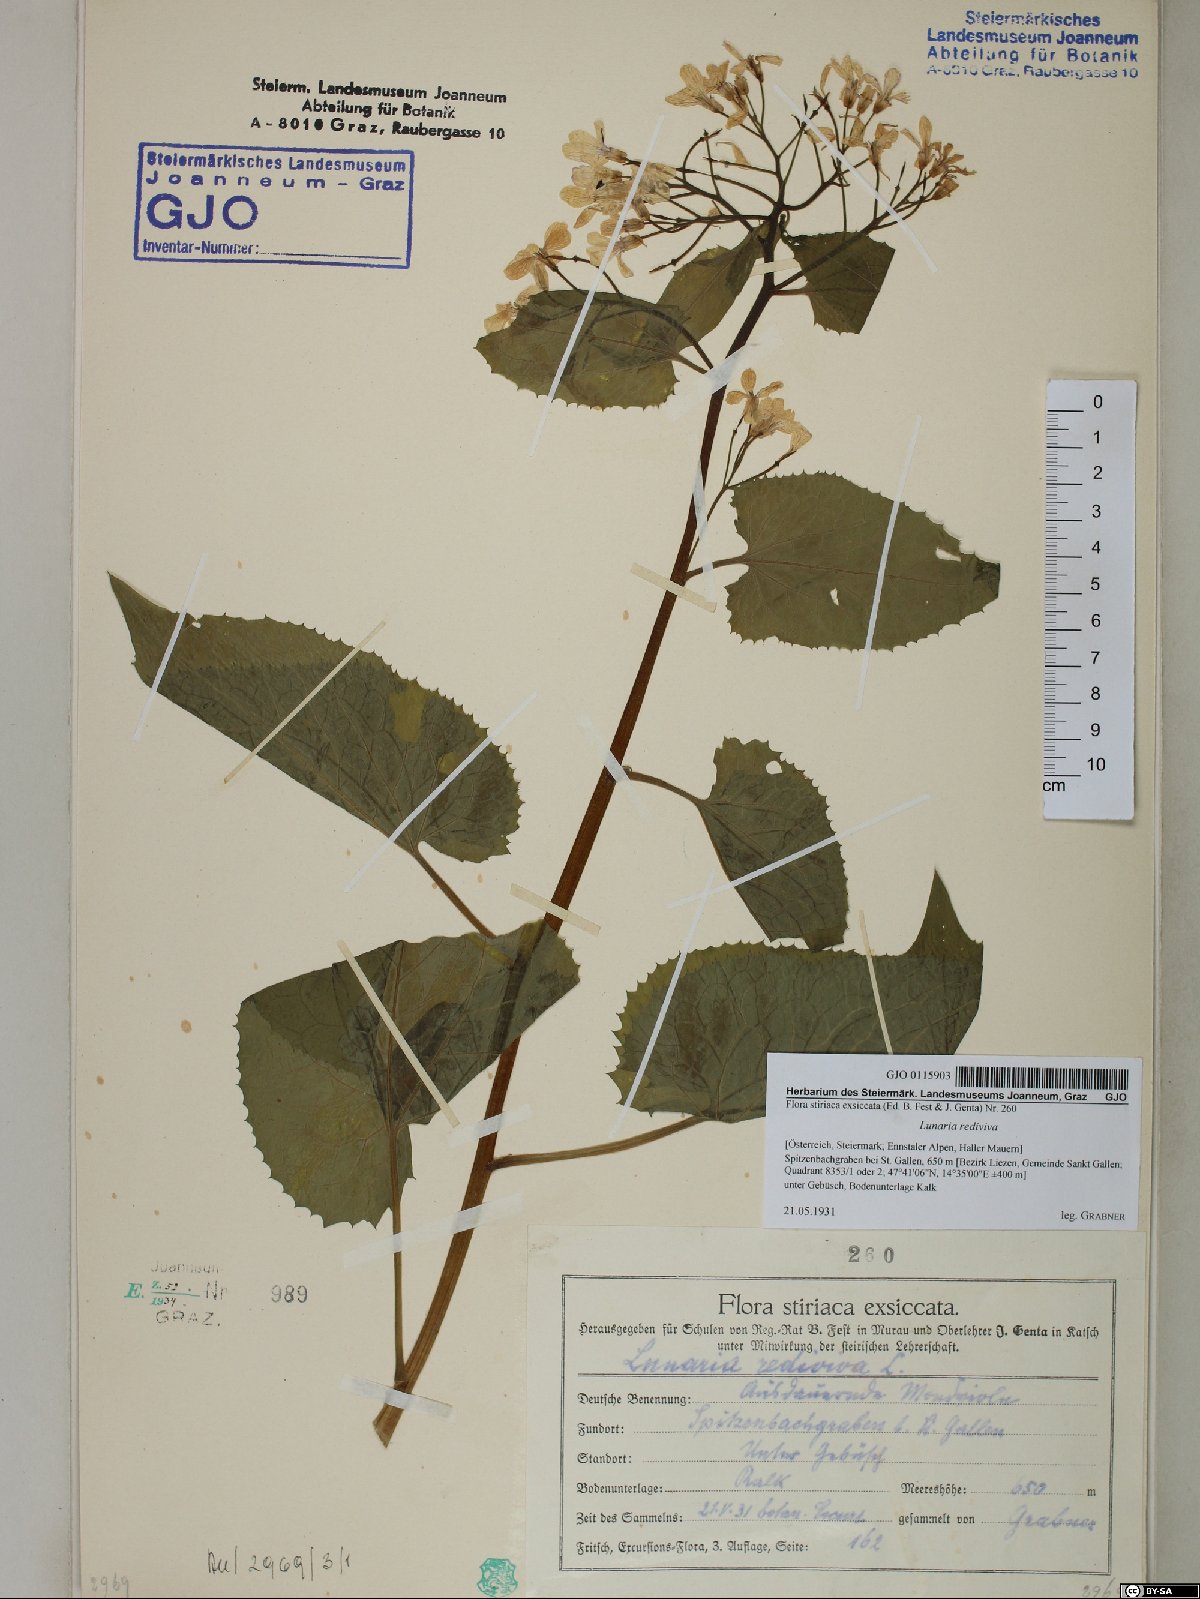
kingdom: Plantae
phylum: Tracheophyta
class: Magnoliopsida
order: Brassicales
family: Brassicaceae
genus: Lunaria
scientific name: Lunaria rediviva
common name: Perennial honesty
